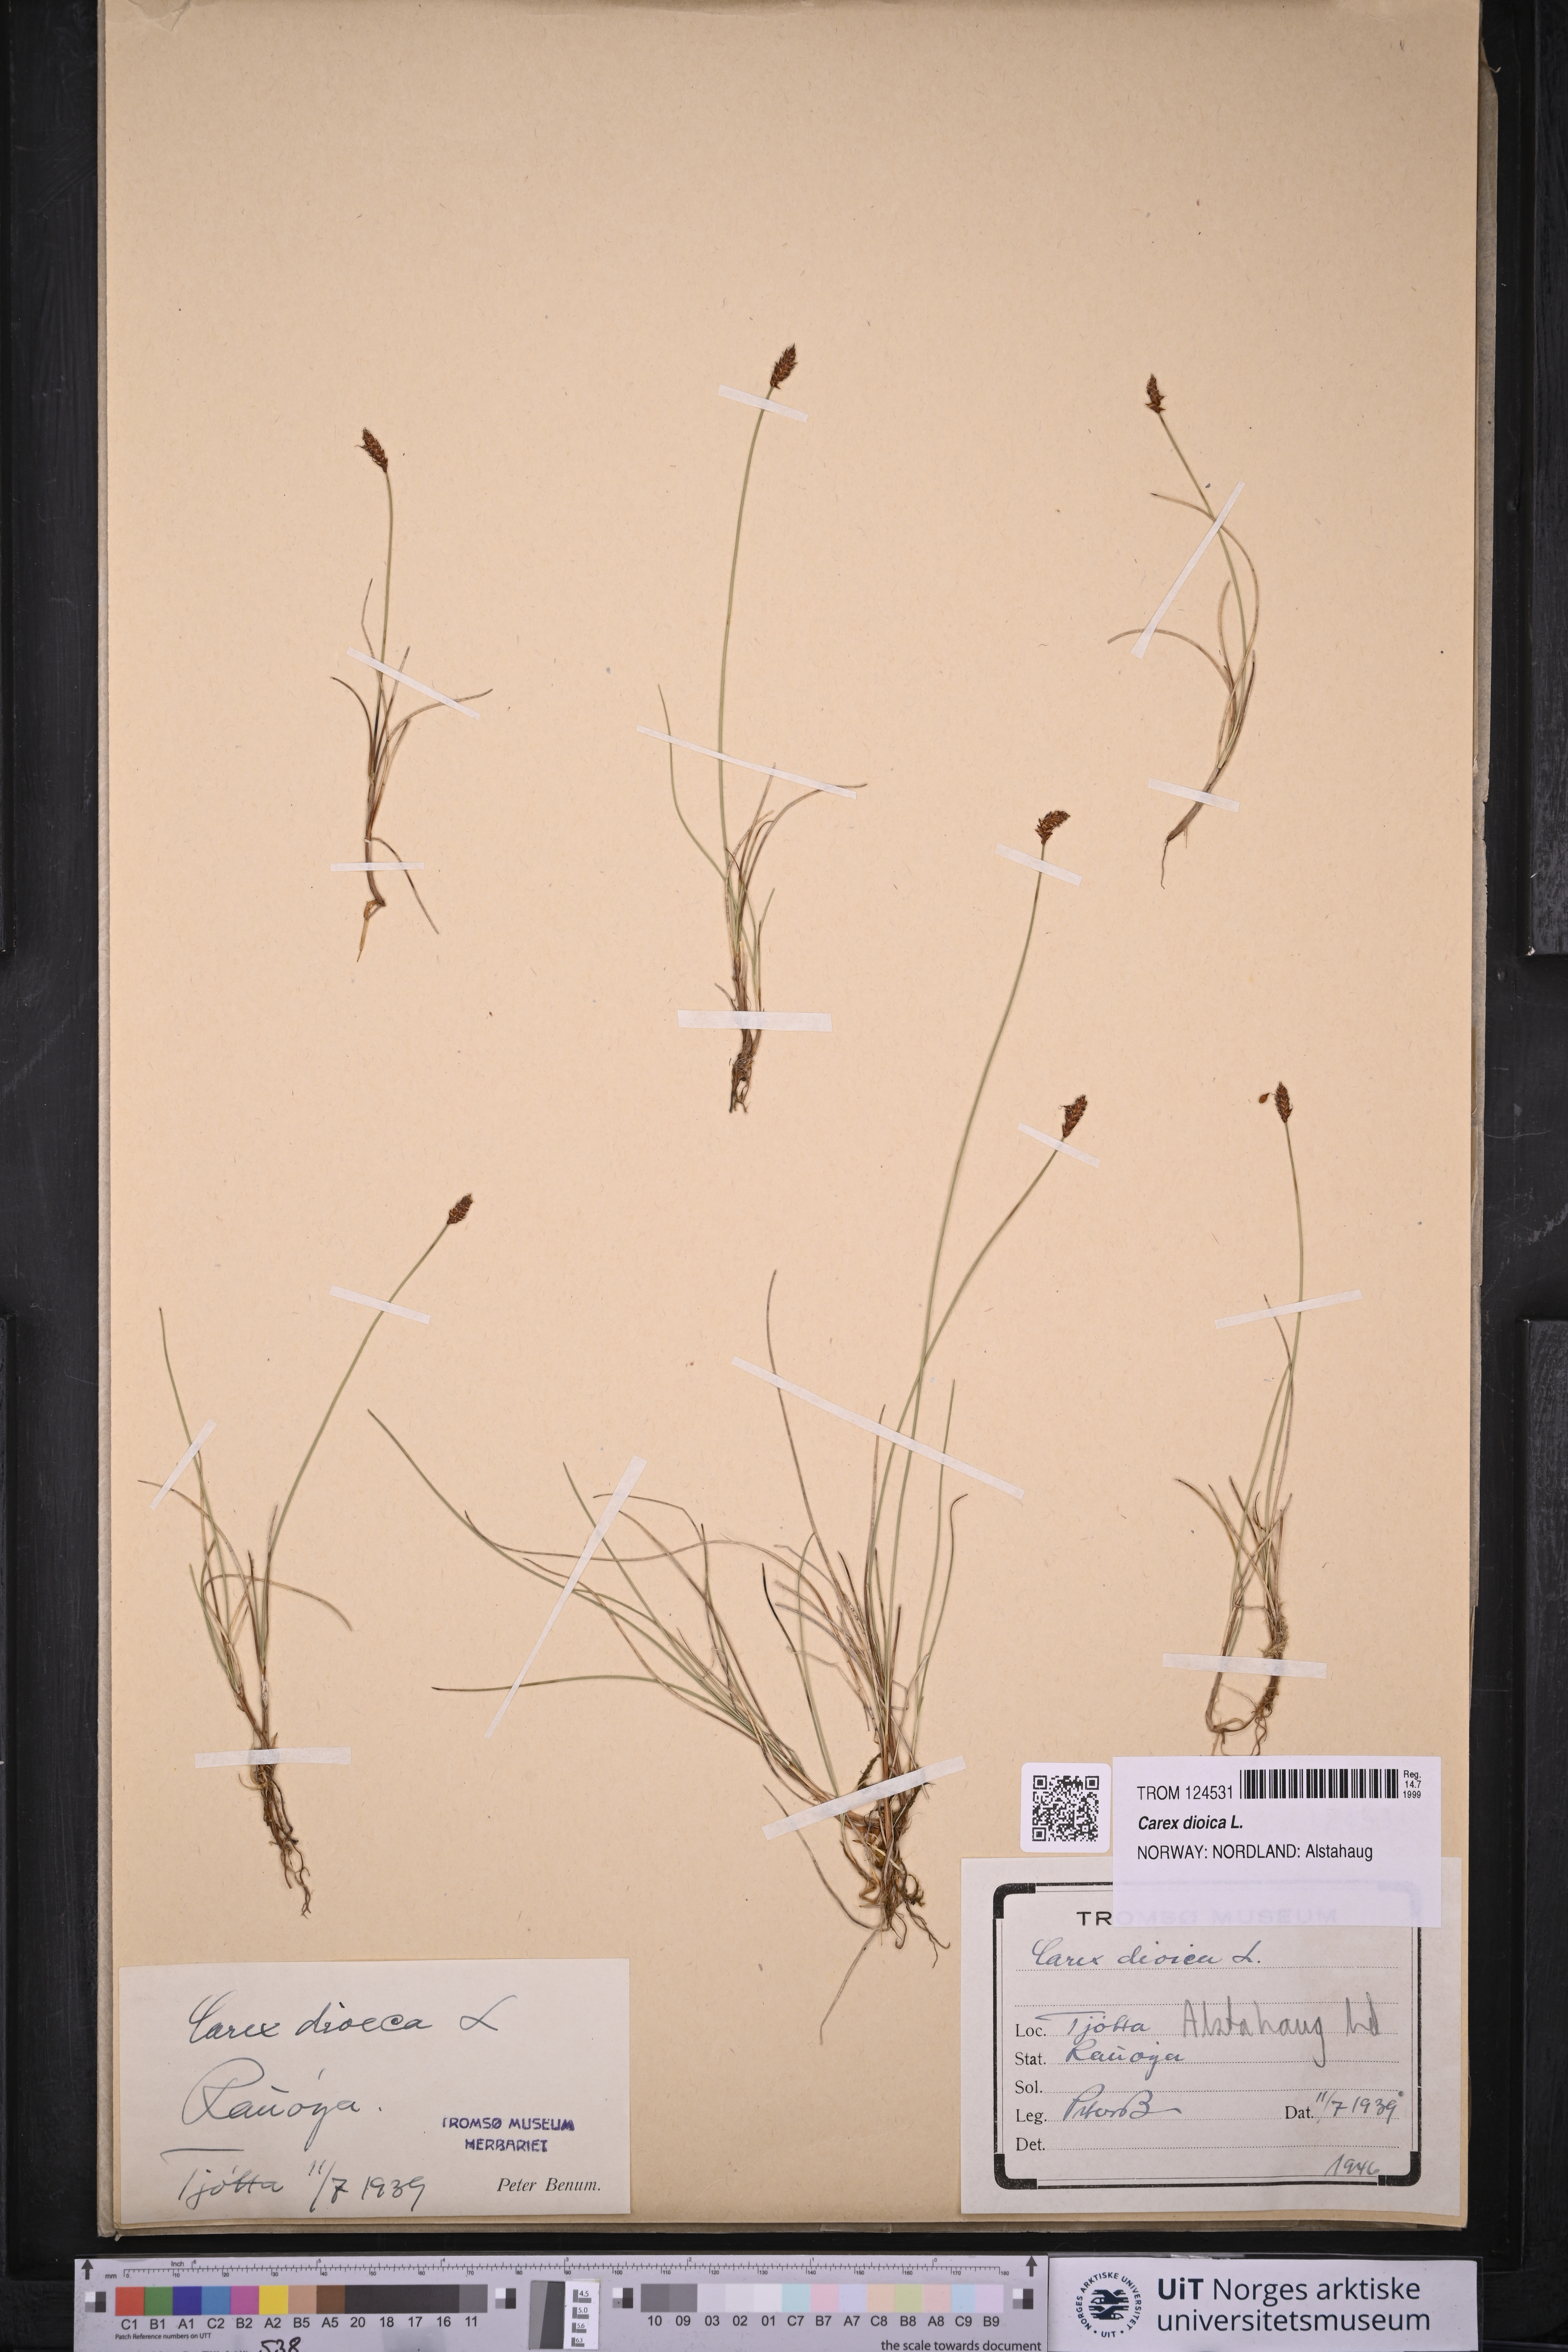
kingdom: Plantae
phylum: Tracheophyta
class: Liliopsida
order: Poales
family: Cyperaceae
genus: Carex
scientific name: Carex dioica
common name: Dioecious sedge
